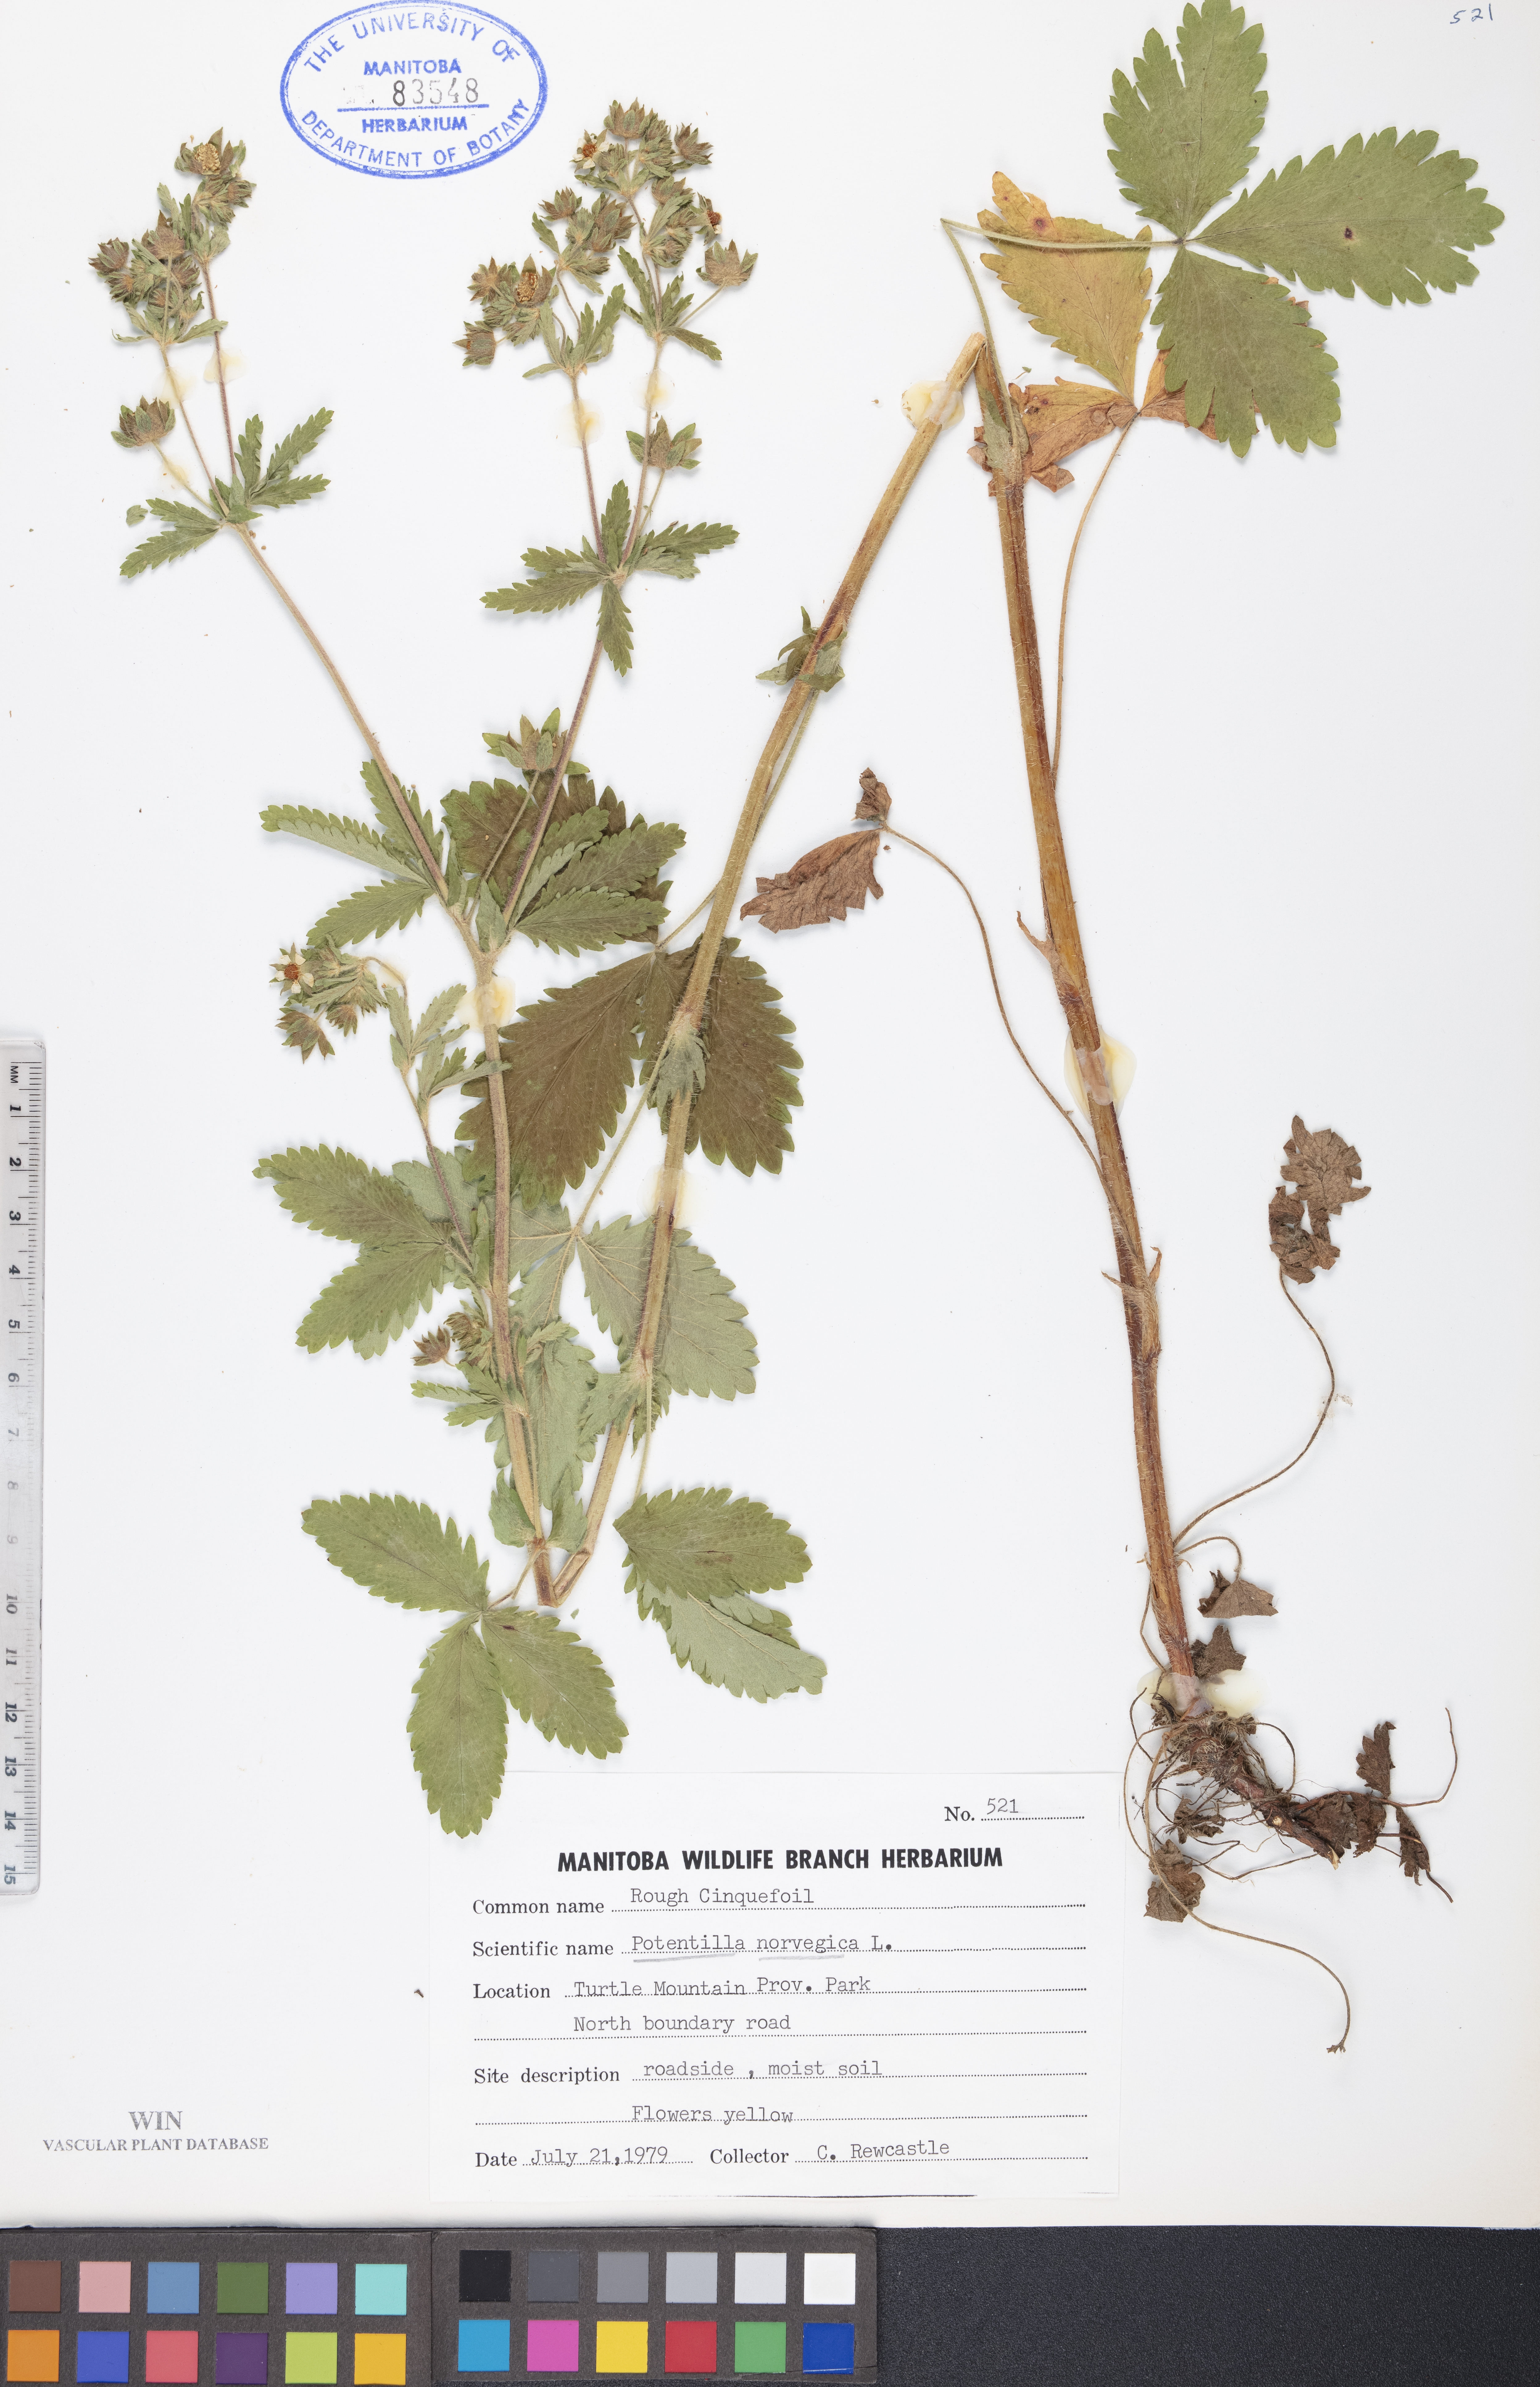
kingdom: Plantae
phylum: Tracheophyta
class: Magnoliopsida
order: Rosales
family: Rosaceae
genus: Potentilla
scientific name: Potentilla norvegica
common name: Ternate-leaved cinquefoil
